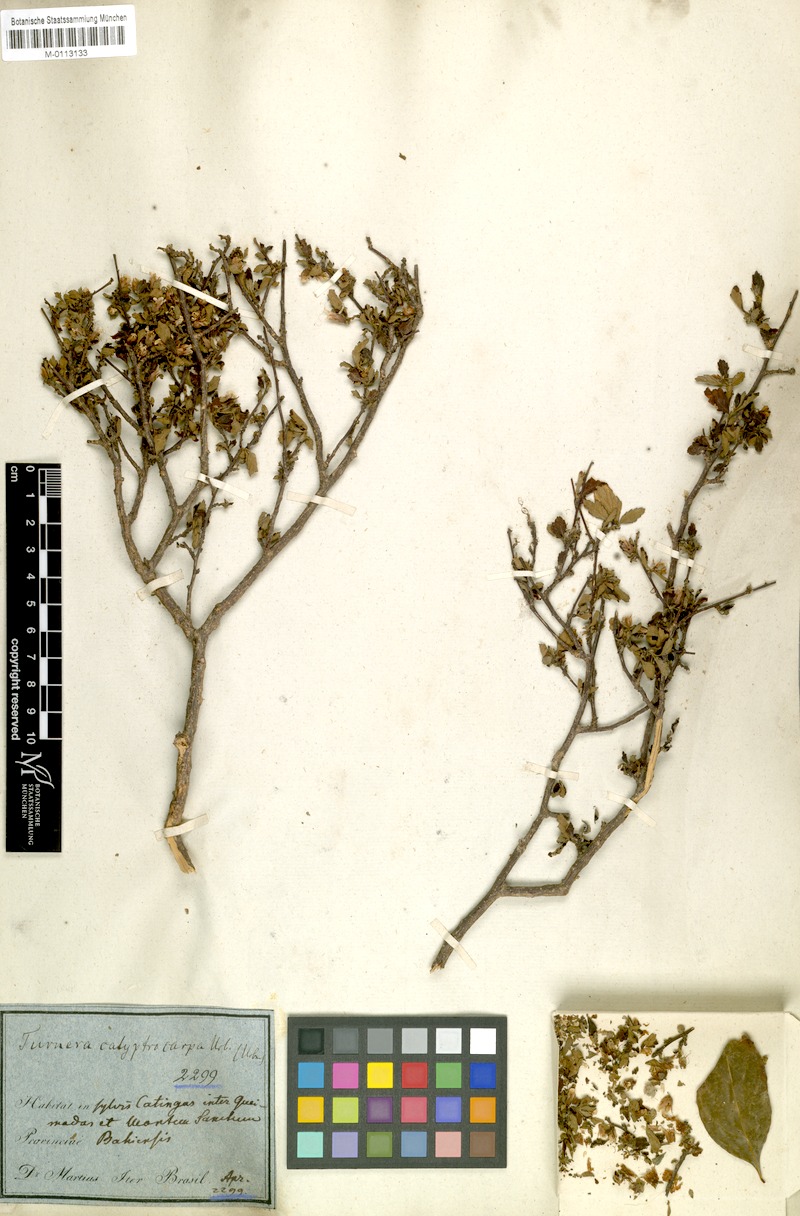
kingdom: Plantae
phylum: Tracheophyta
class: Magnoliopsida
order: Malpighiales
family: Turneraceae
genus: Oxossia
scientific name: Oxossia calyptrocarpa
